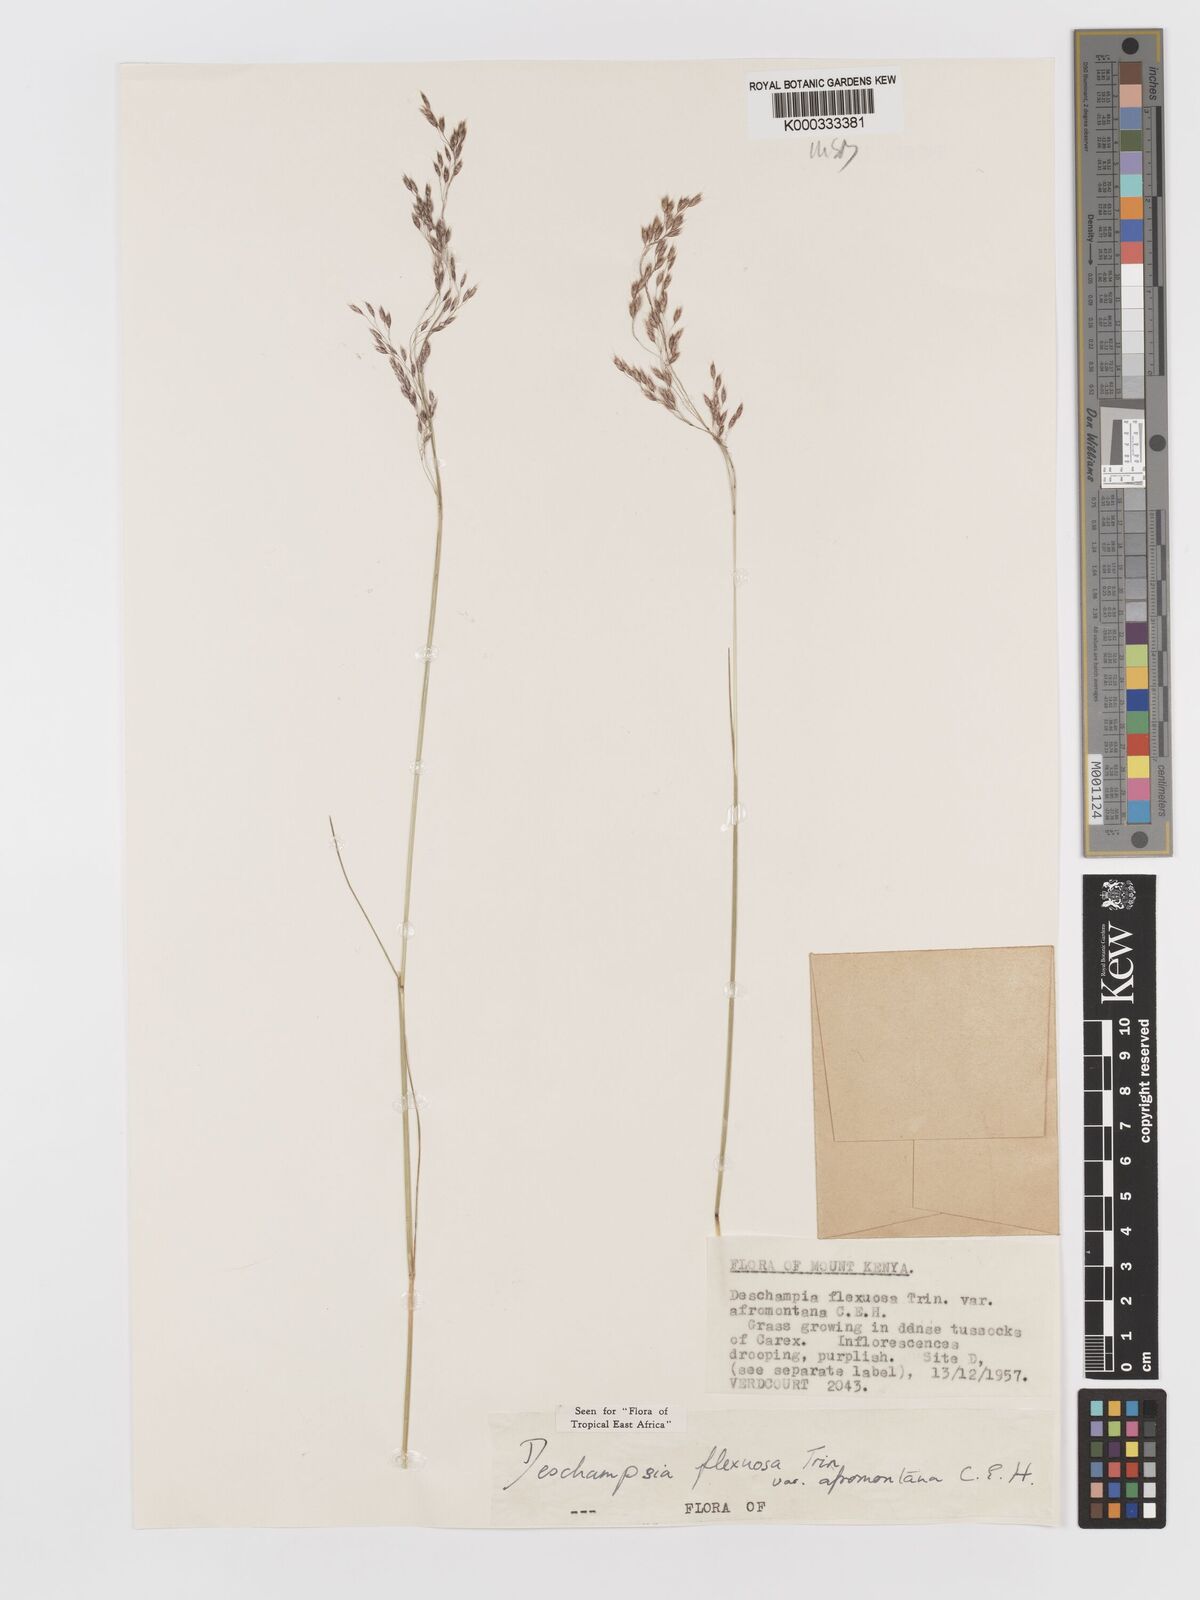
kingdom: Plantae
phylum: Tracheophyta
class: Liliopsida
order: Poales
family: Poaceae
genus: Avenella
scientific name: Avenella flexuosa
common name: Wavy hairgrass
